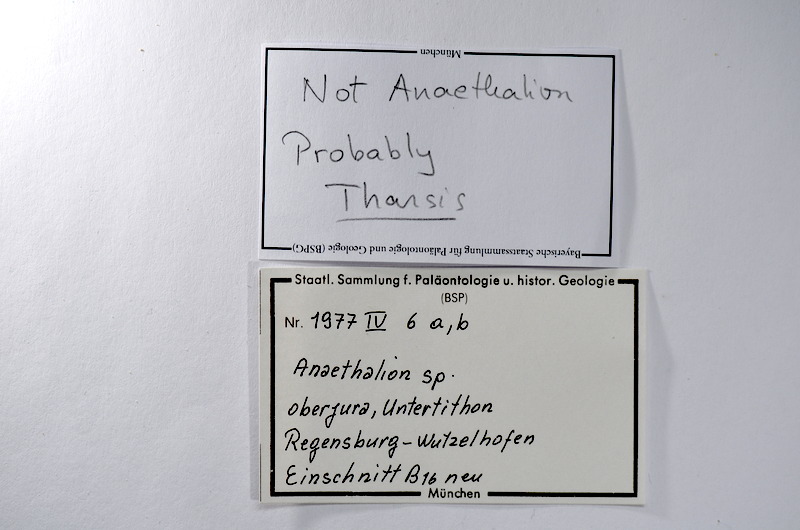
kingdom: Animalia
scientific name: Animalia
